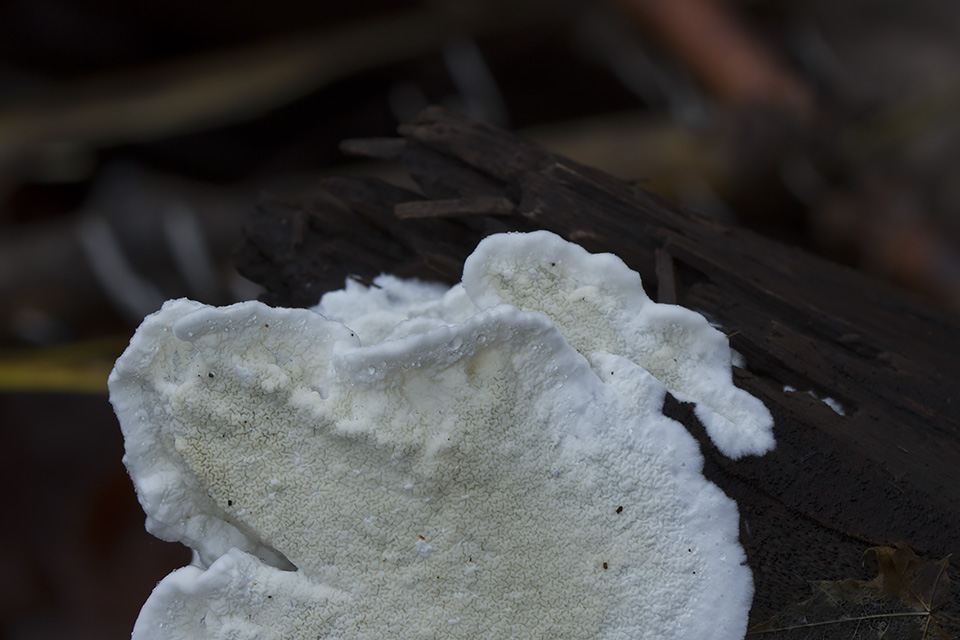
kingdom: Fungi
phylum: Basidiomycota
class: Agaricomycetes
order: Polyporales
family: Irpicaceae
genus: Byssomerulius
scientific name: Byssomerulius corium
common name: læder-åresvamp
